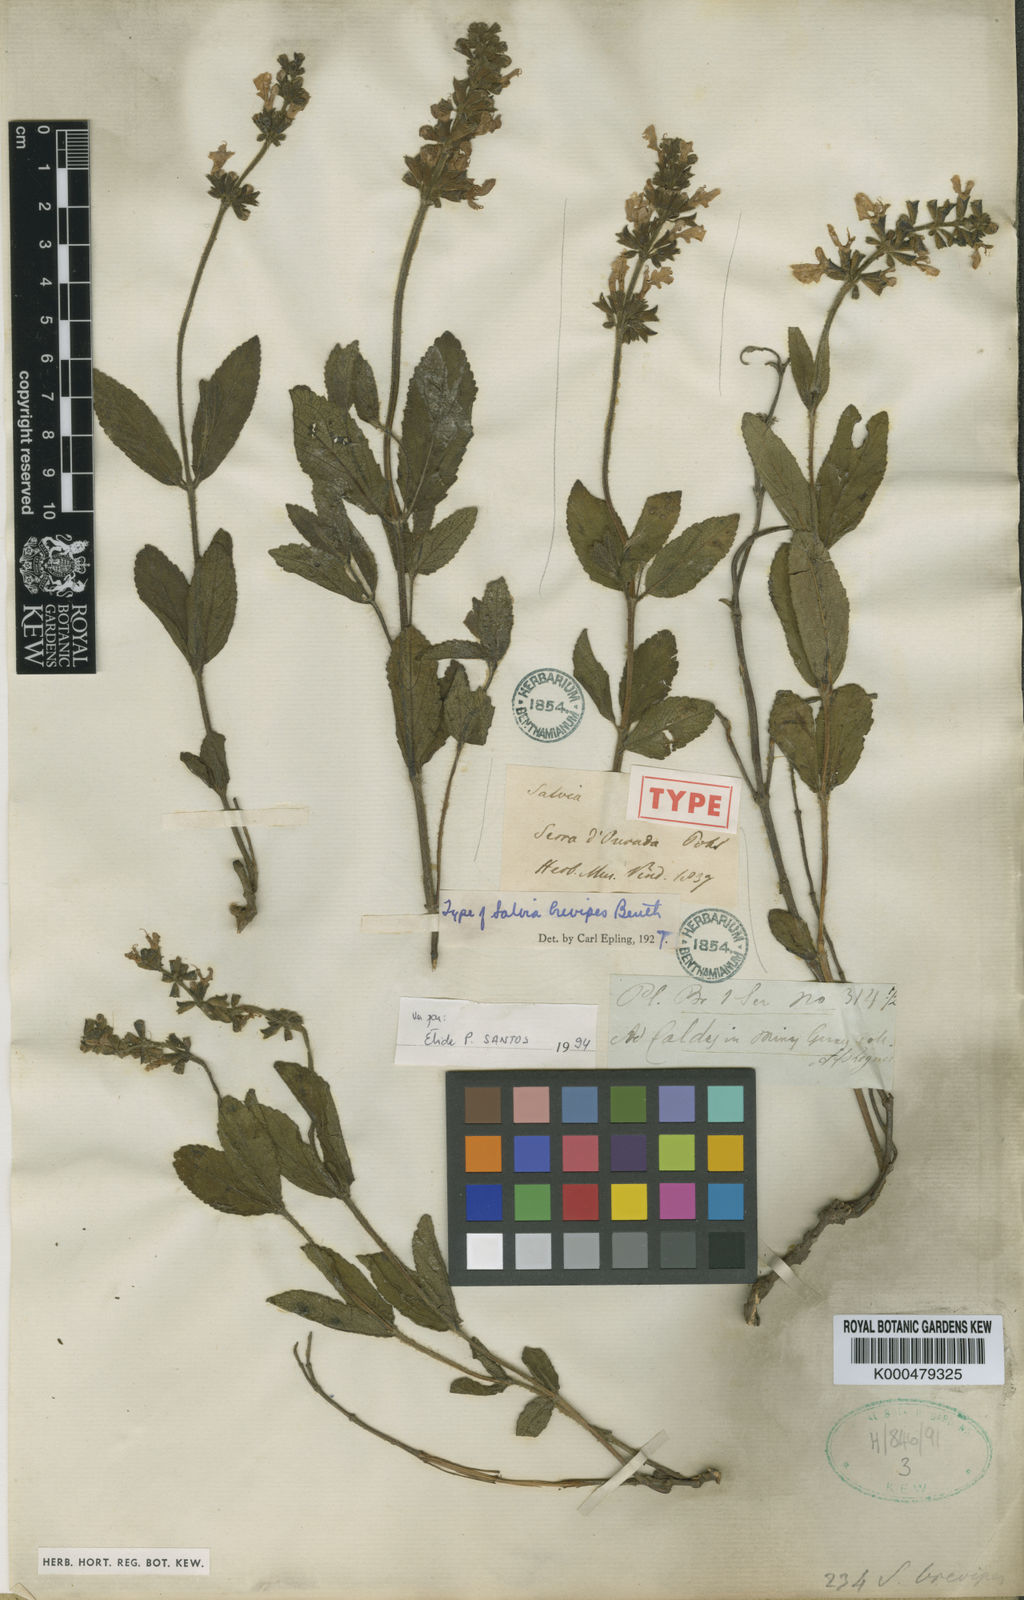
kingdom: Plantae
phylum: Tracheophyta
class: Magnoliopsida
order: Lamiales
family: Lamiaceae
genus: Salvia
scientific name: Salvia brevipes
